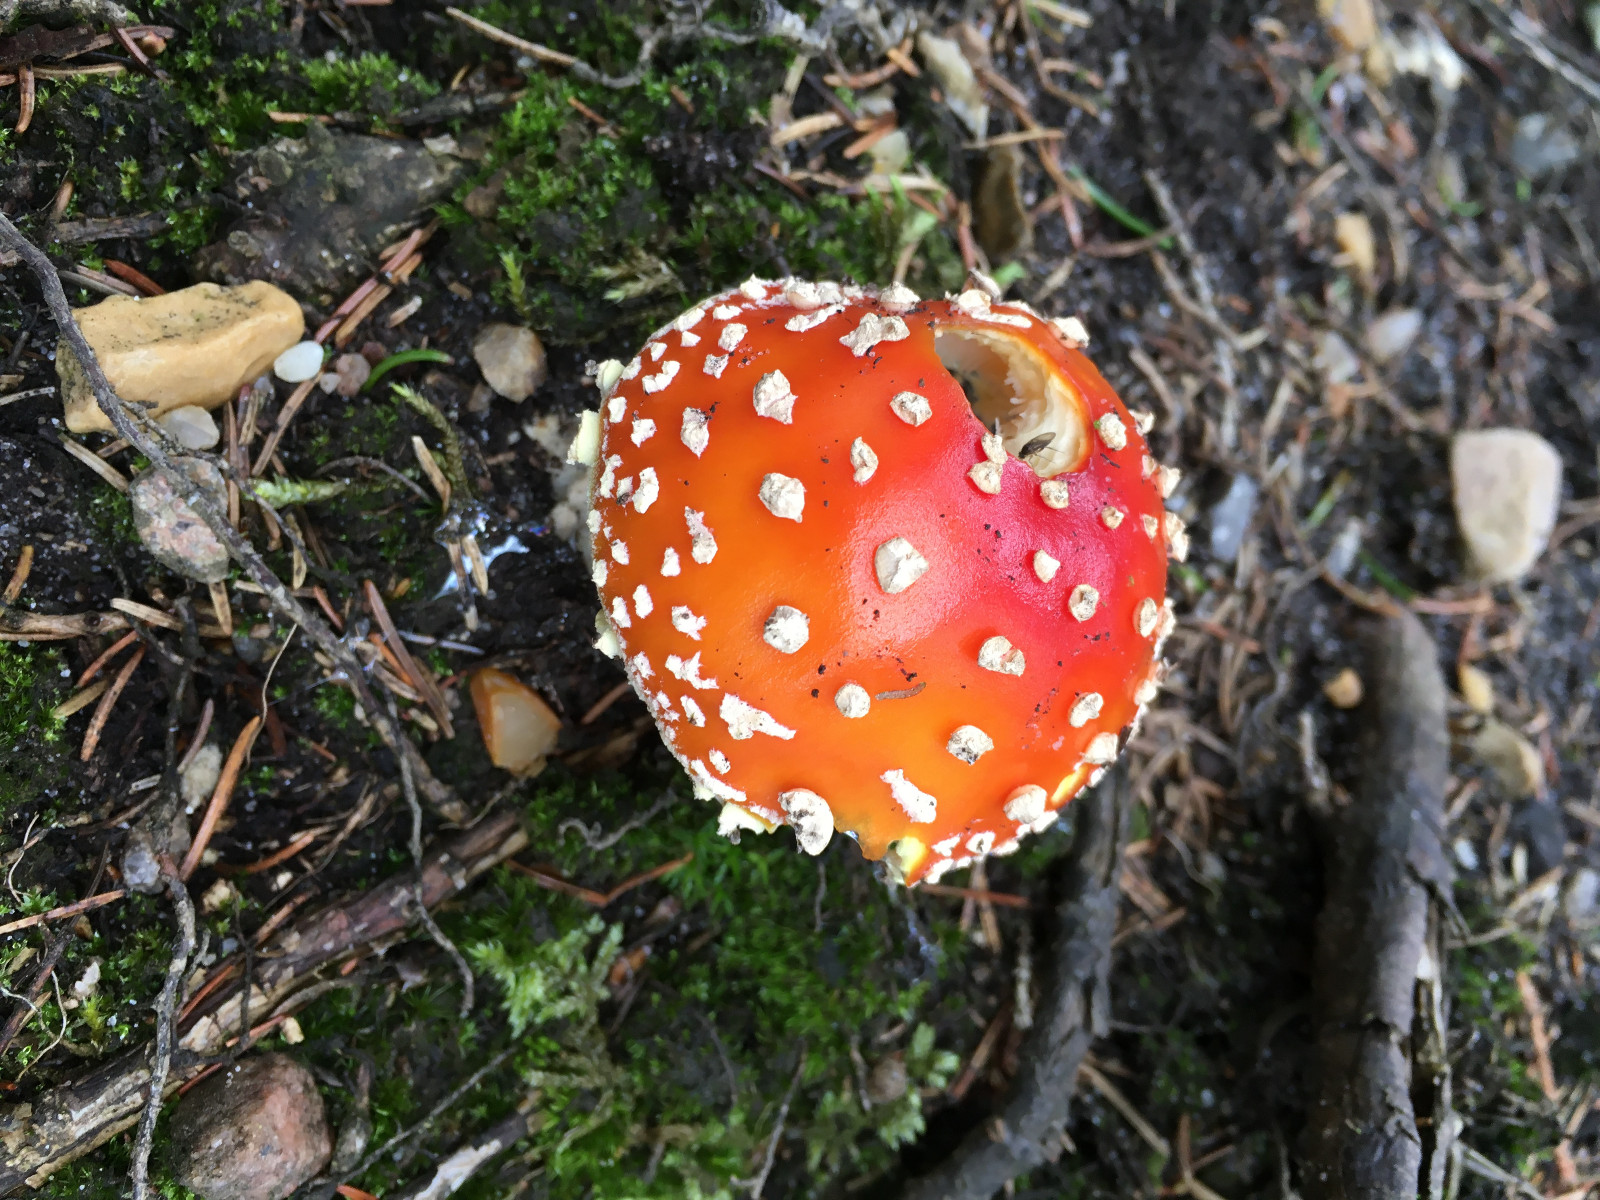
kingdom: Fungi
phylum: Basidiomycota
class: Agaricomycetes
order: Agaricales
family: Amanitaceae
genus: Amanita
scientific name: Amanita muscaria
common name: rød fluesvamp
